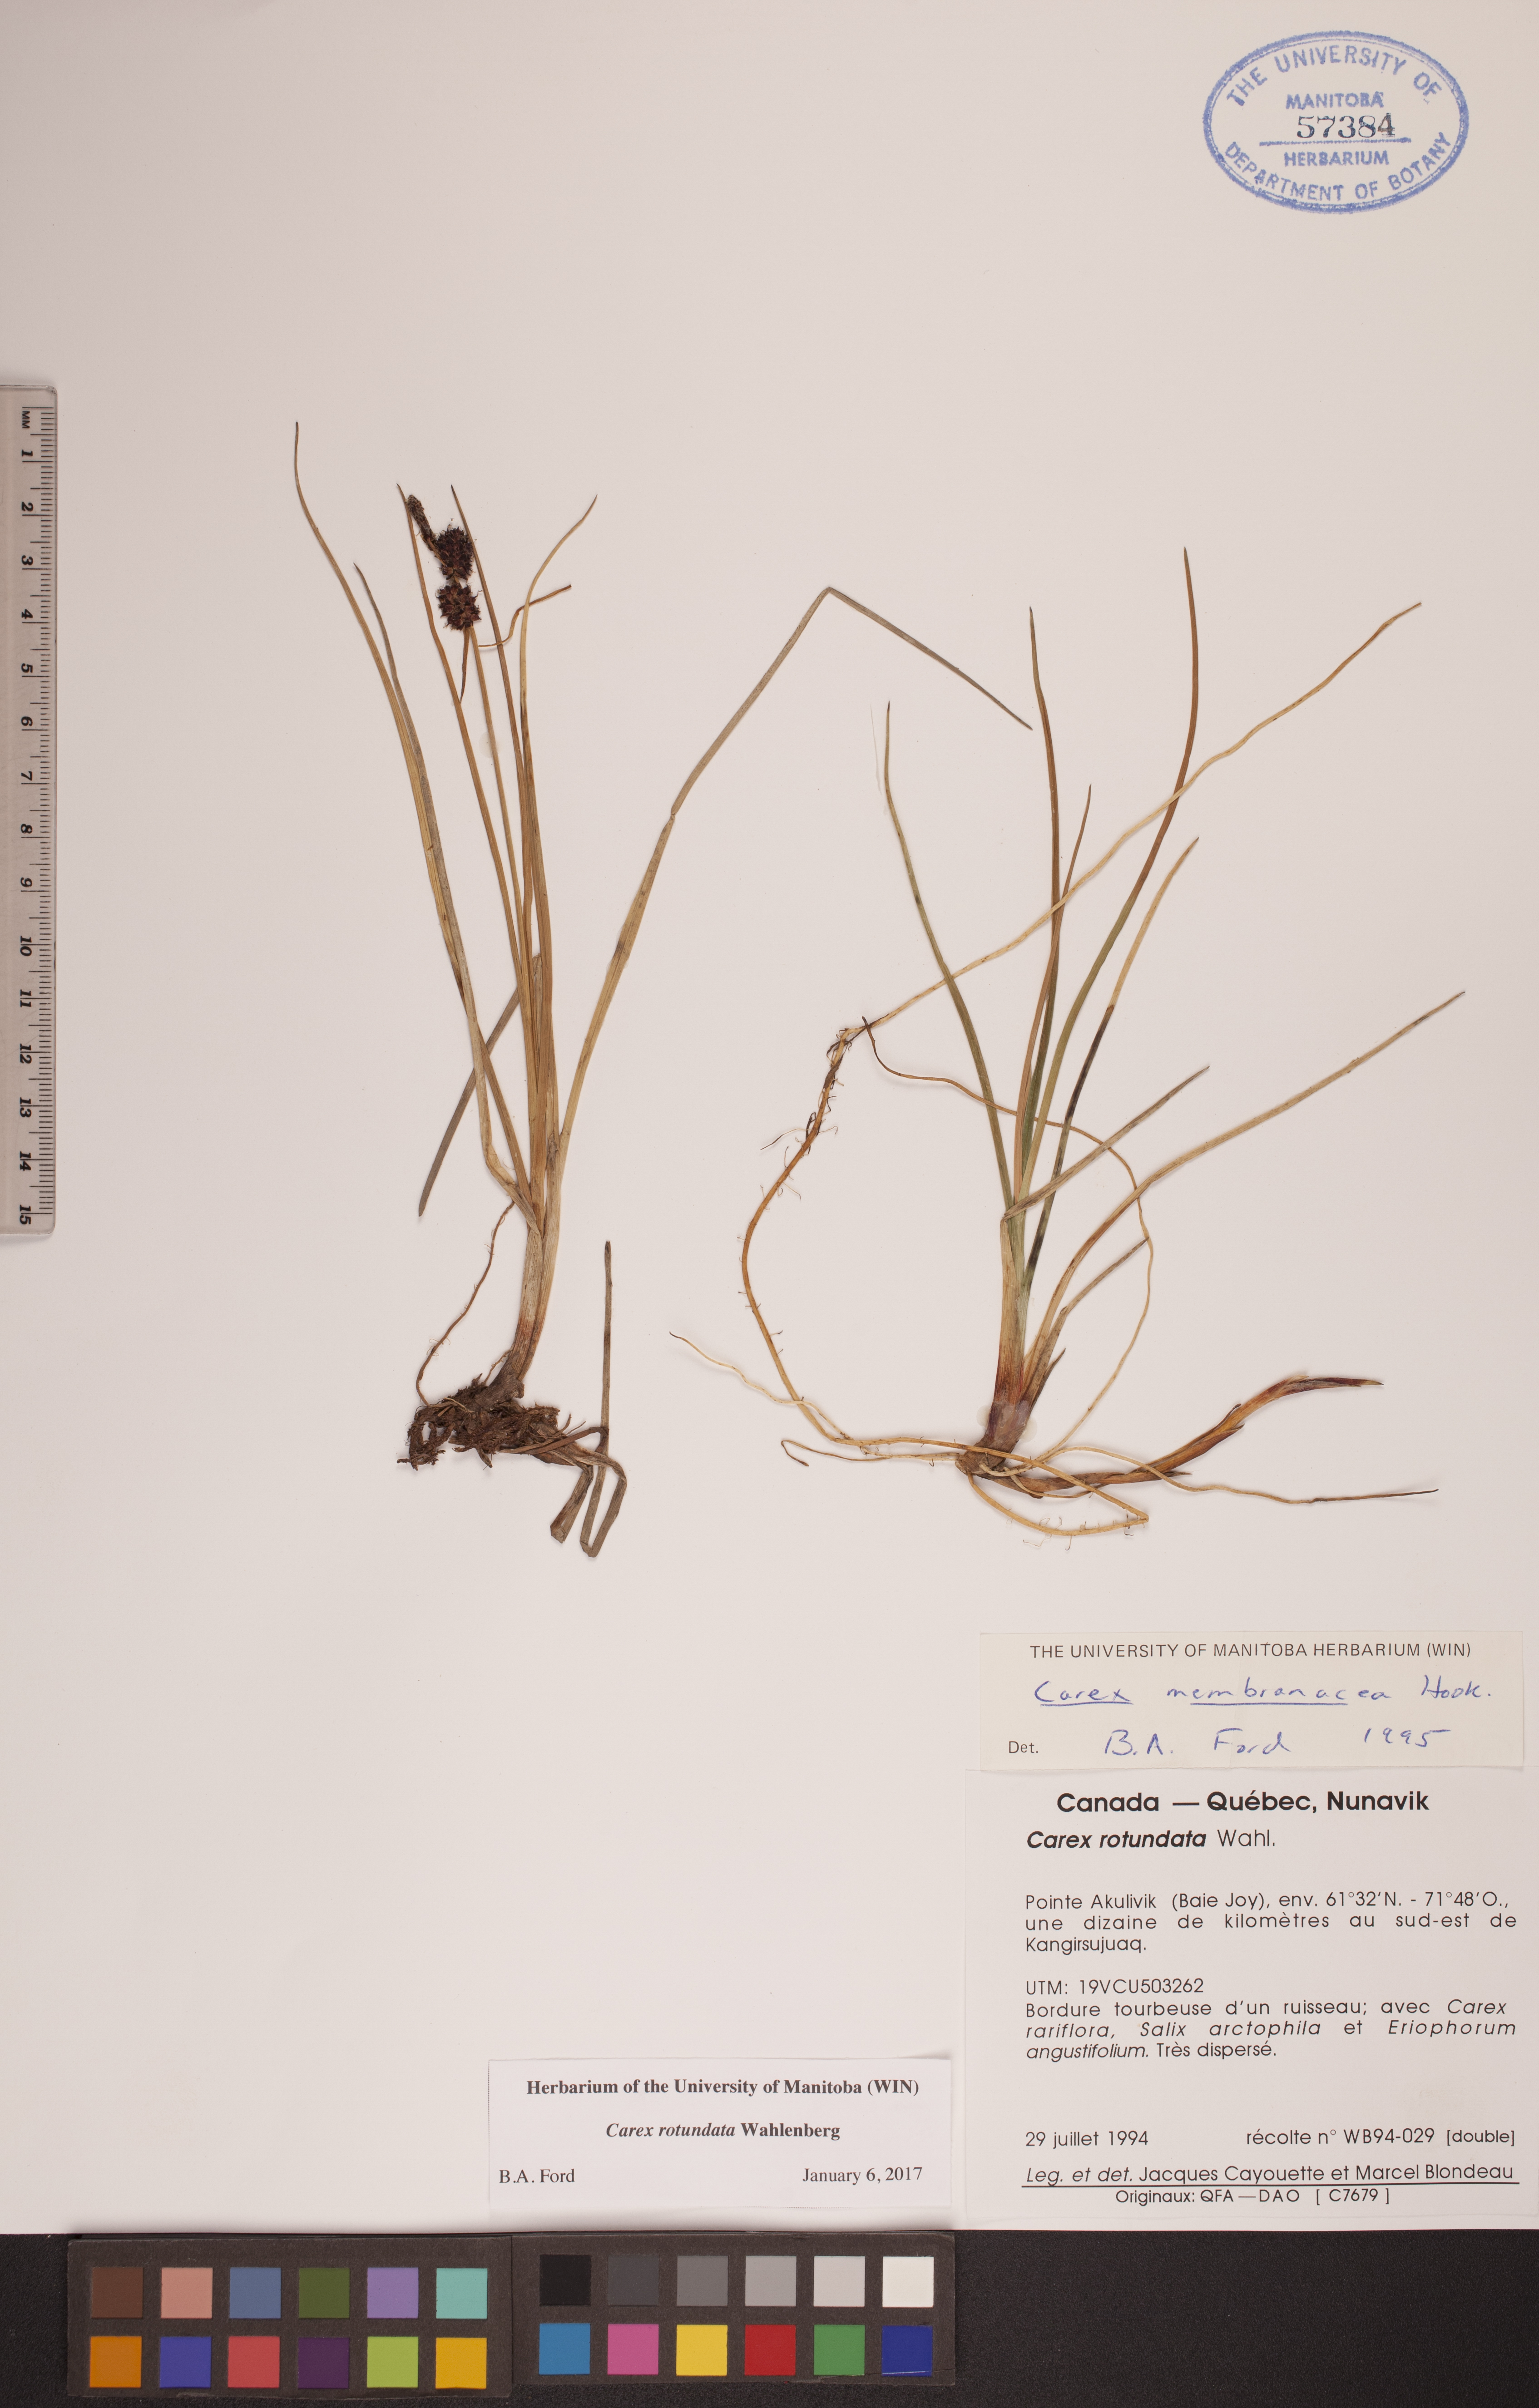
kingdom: Plantae
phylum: Tracheophyta
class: Liliopsida
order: Poales
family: Cyperaceae
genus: Carex
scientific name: Carex rotundata
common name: Round-fruited sedge
